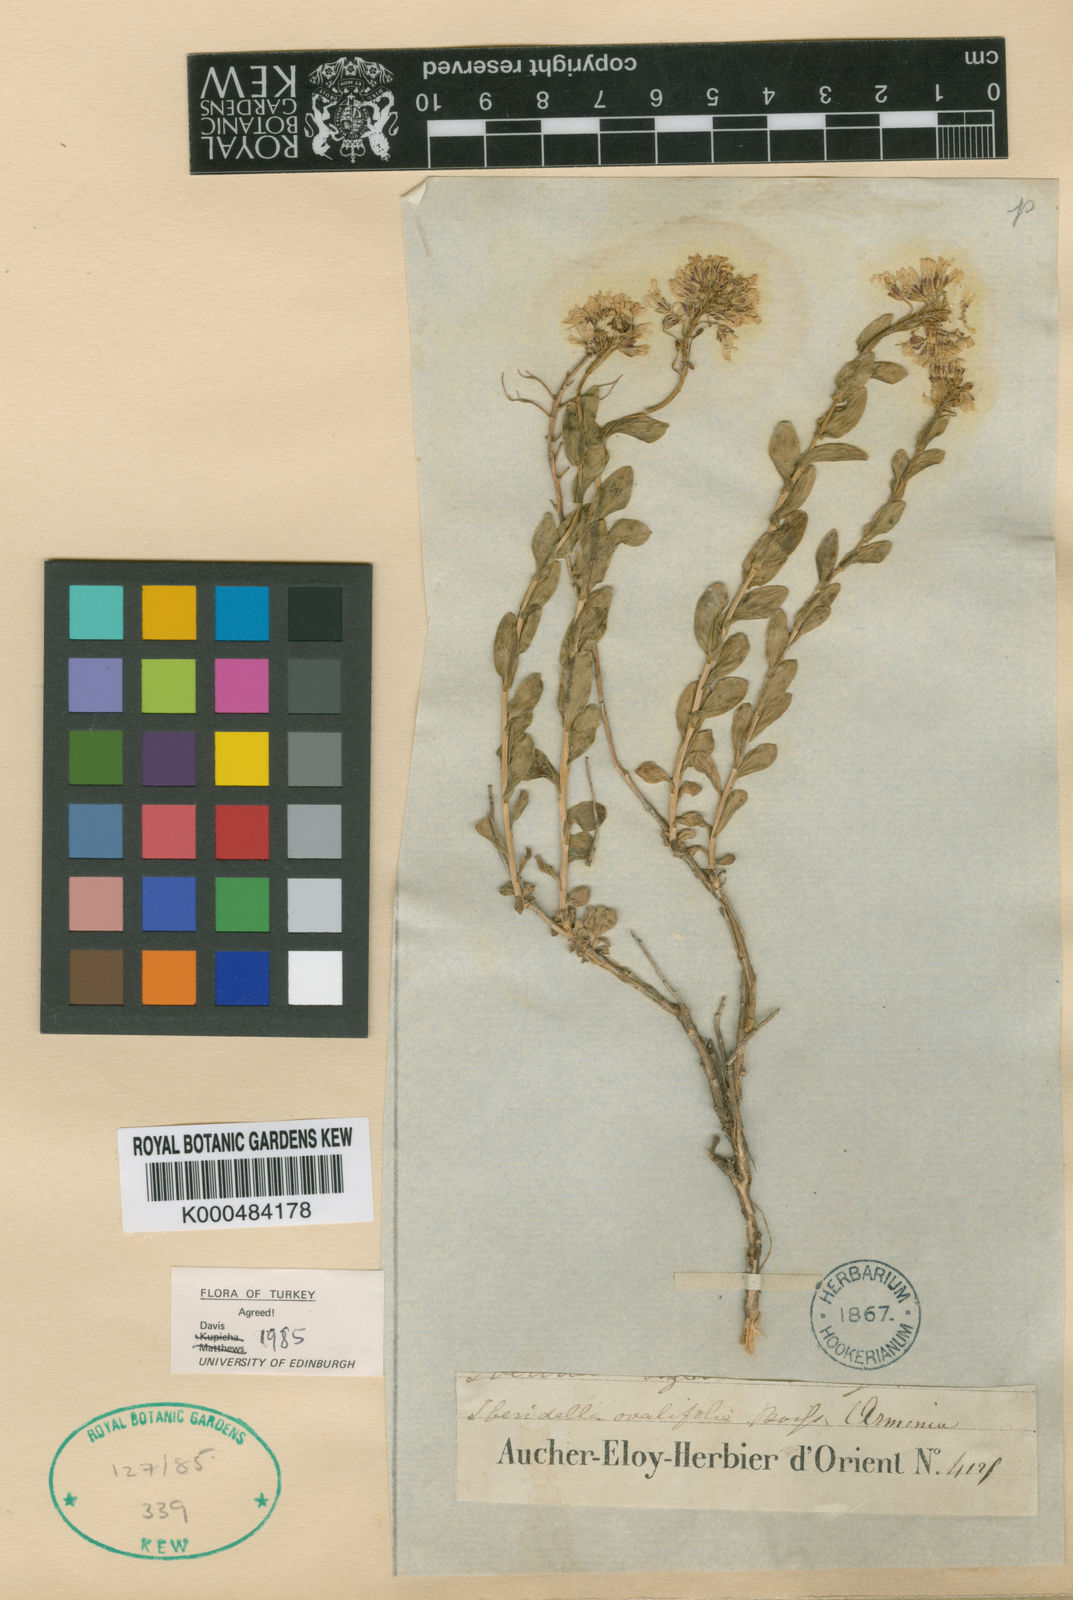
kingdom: Plantae
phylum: Tracheophyta
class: Magnoliopsida
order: Brassicales
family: Brassicaceae
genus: Noccaea
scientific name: Noccaea trinervia
